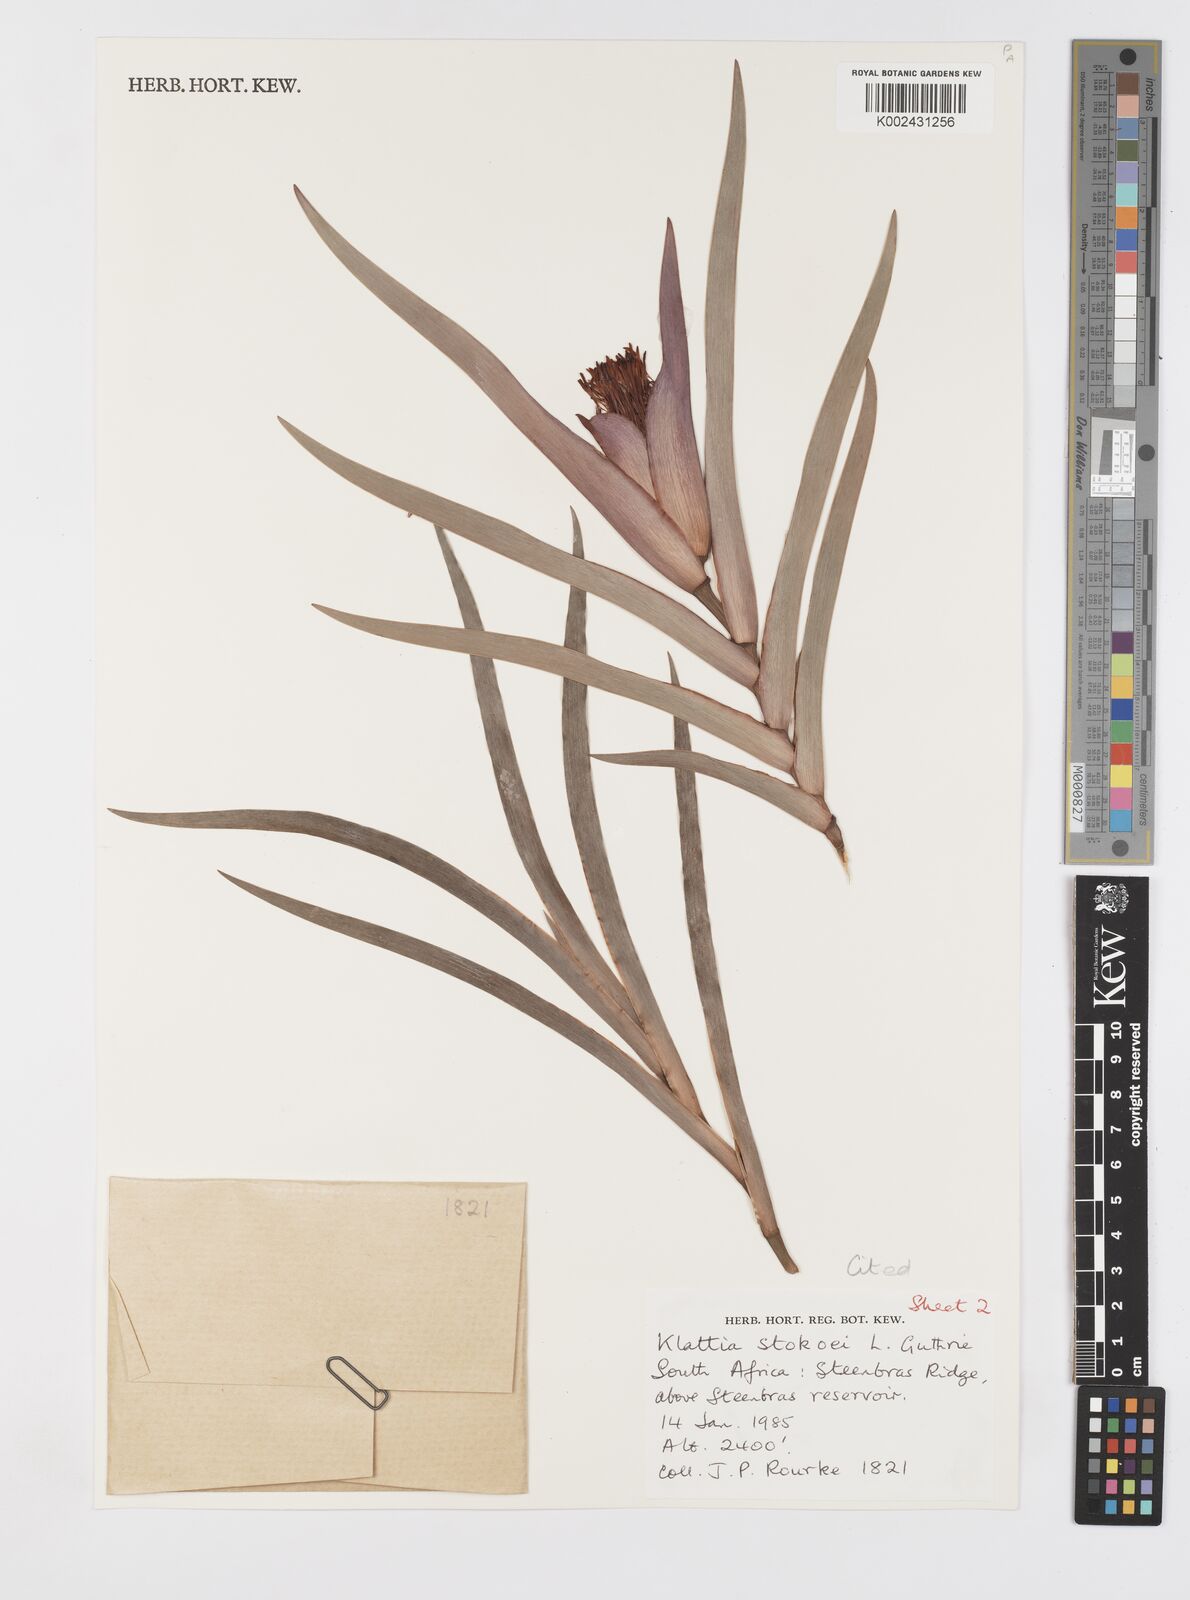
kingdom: Plantae
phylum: Tracheophyta
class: Liliopsida
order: Asparagales
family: Iridaceae
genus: Klattia
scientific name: Klattia stokoei
